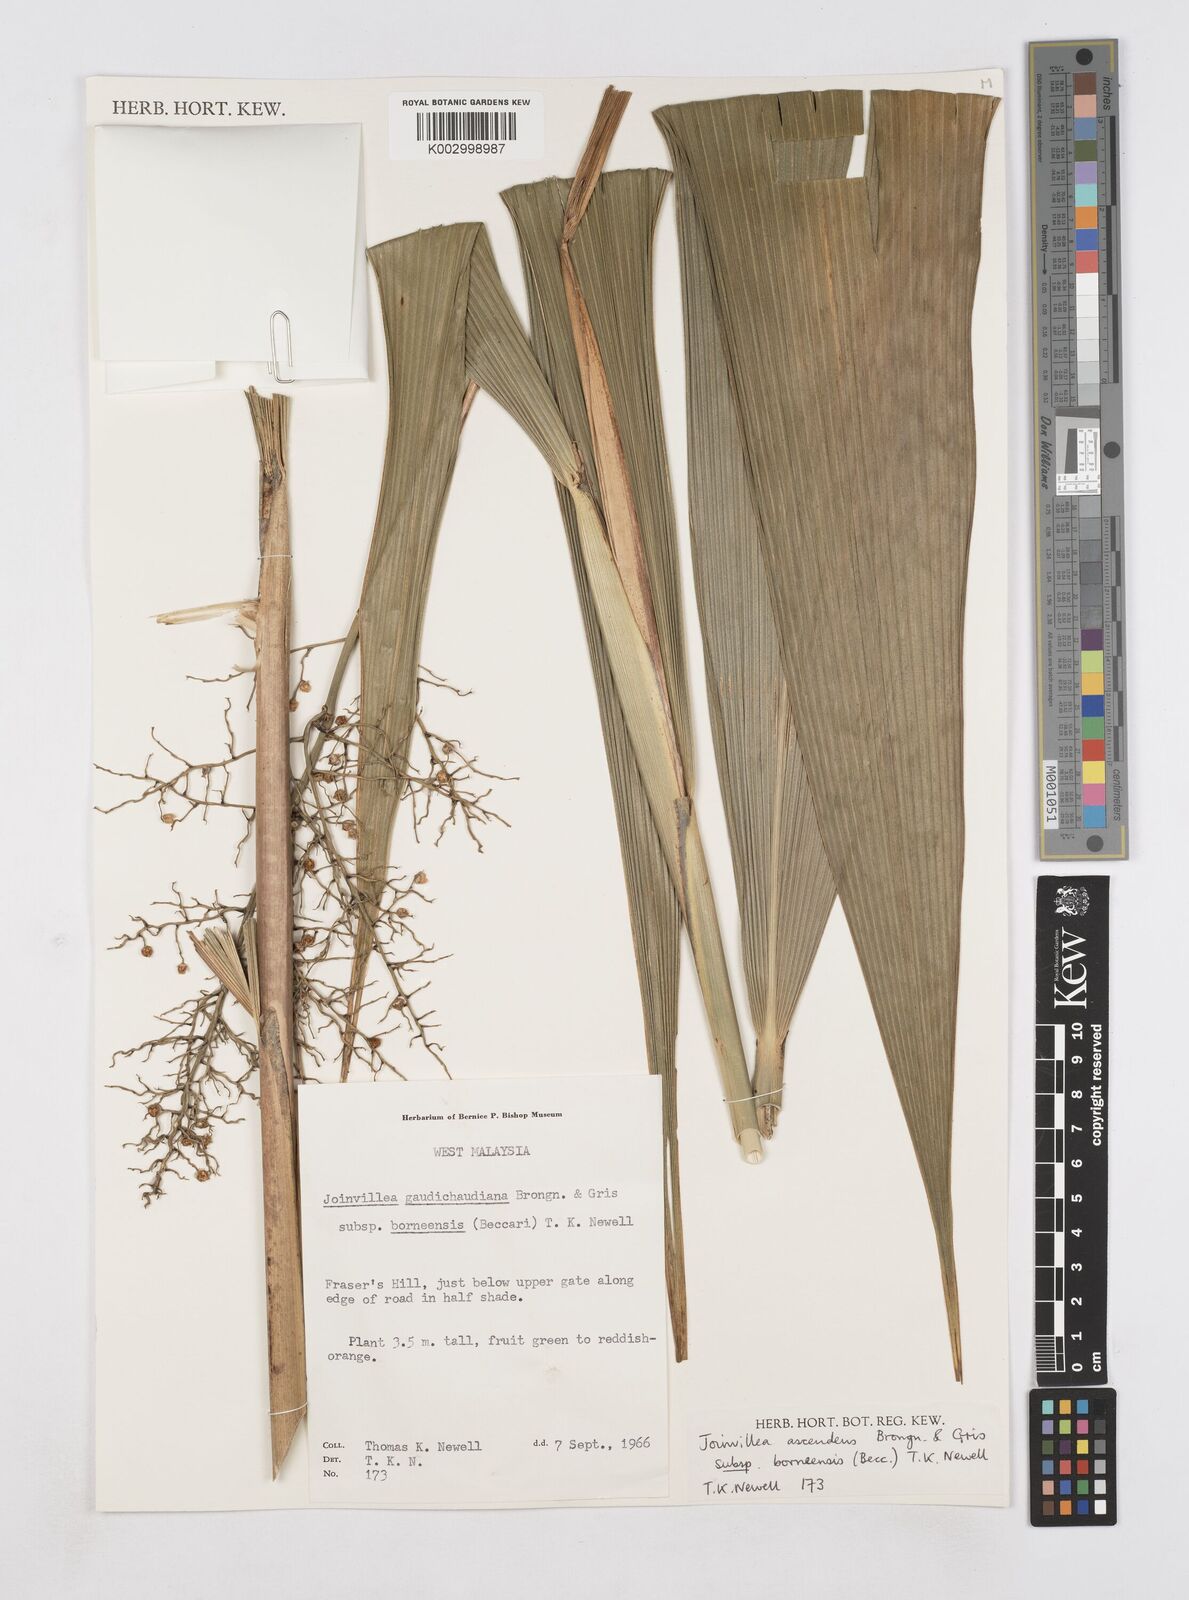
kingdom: Plantae
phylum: Tracheophyta
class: Liliopsida
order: Poales
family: Joinvilleaceae
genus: Joinvillea
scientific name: Joinvillea borneensis
